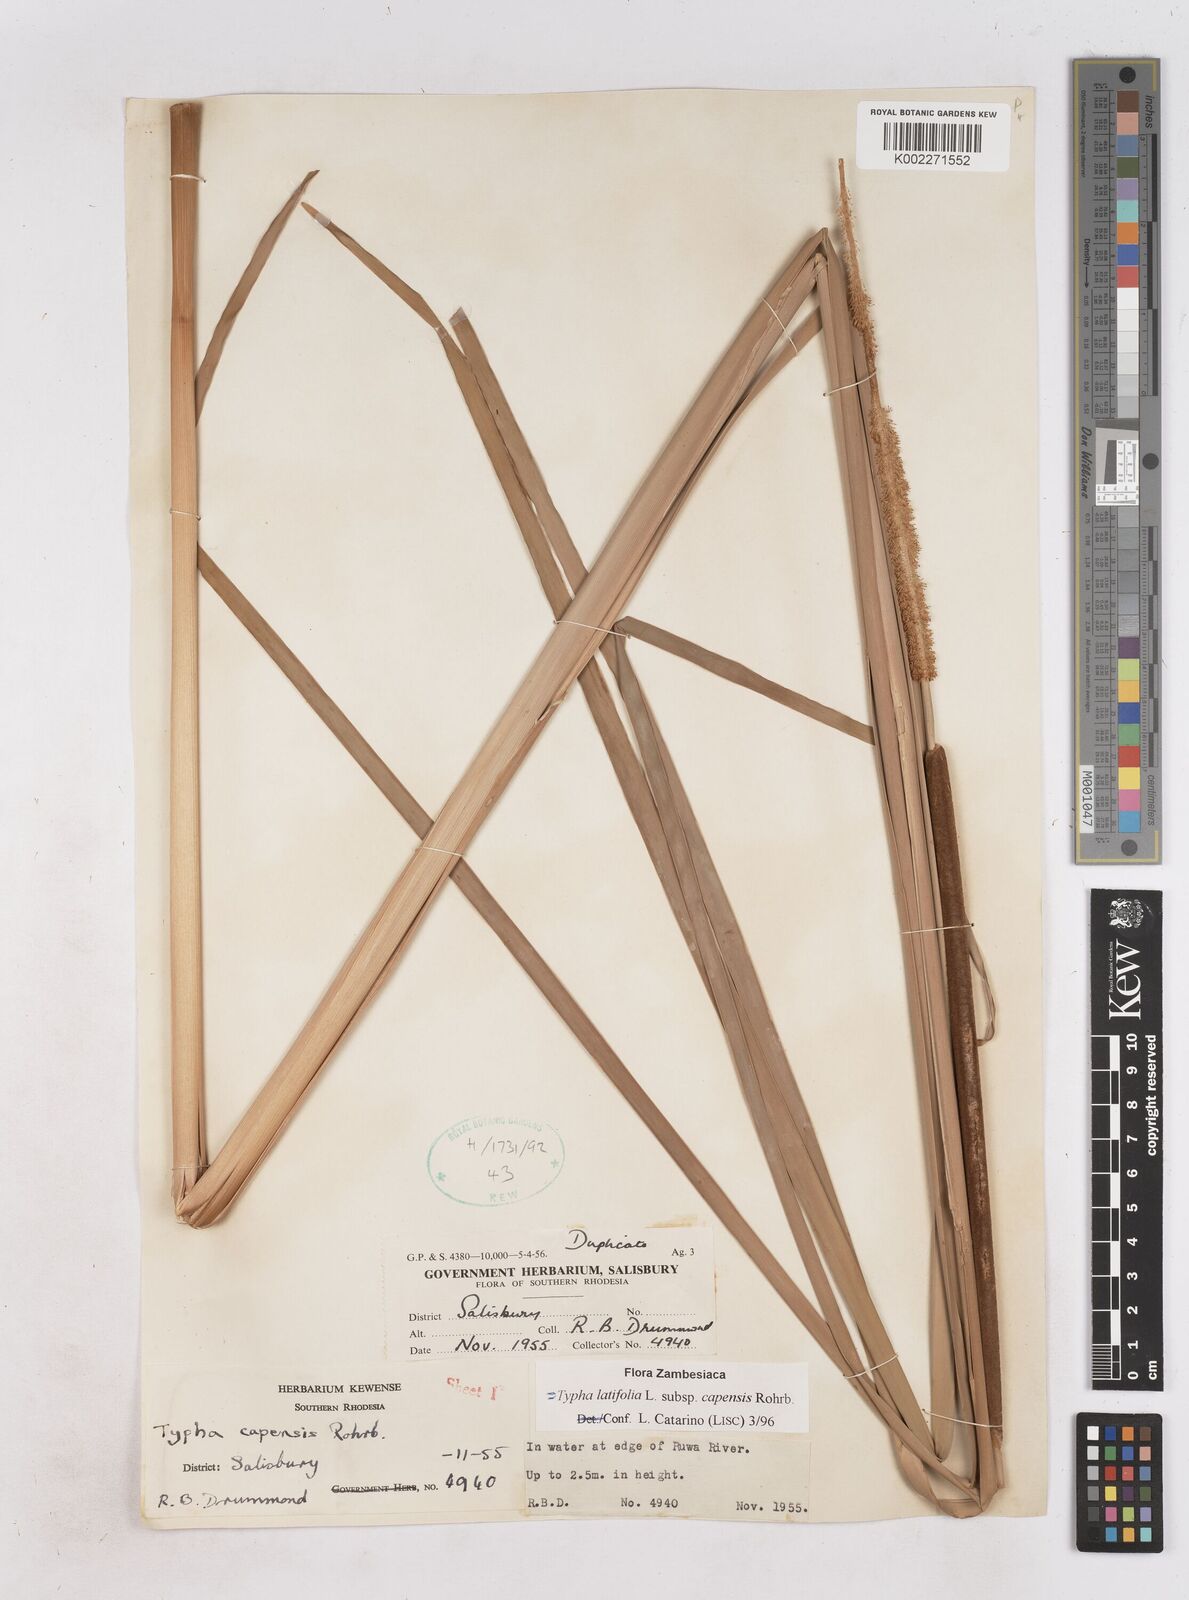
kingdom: Plantae
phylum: Tracheophyta
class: Liliopsida
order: Poales
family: Typhaceae
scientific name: Typhaceae
